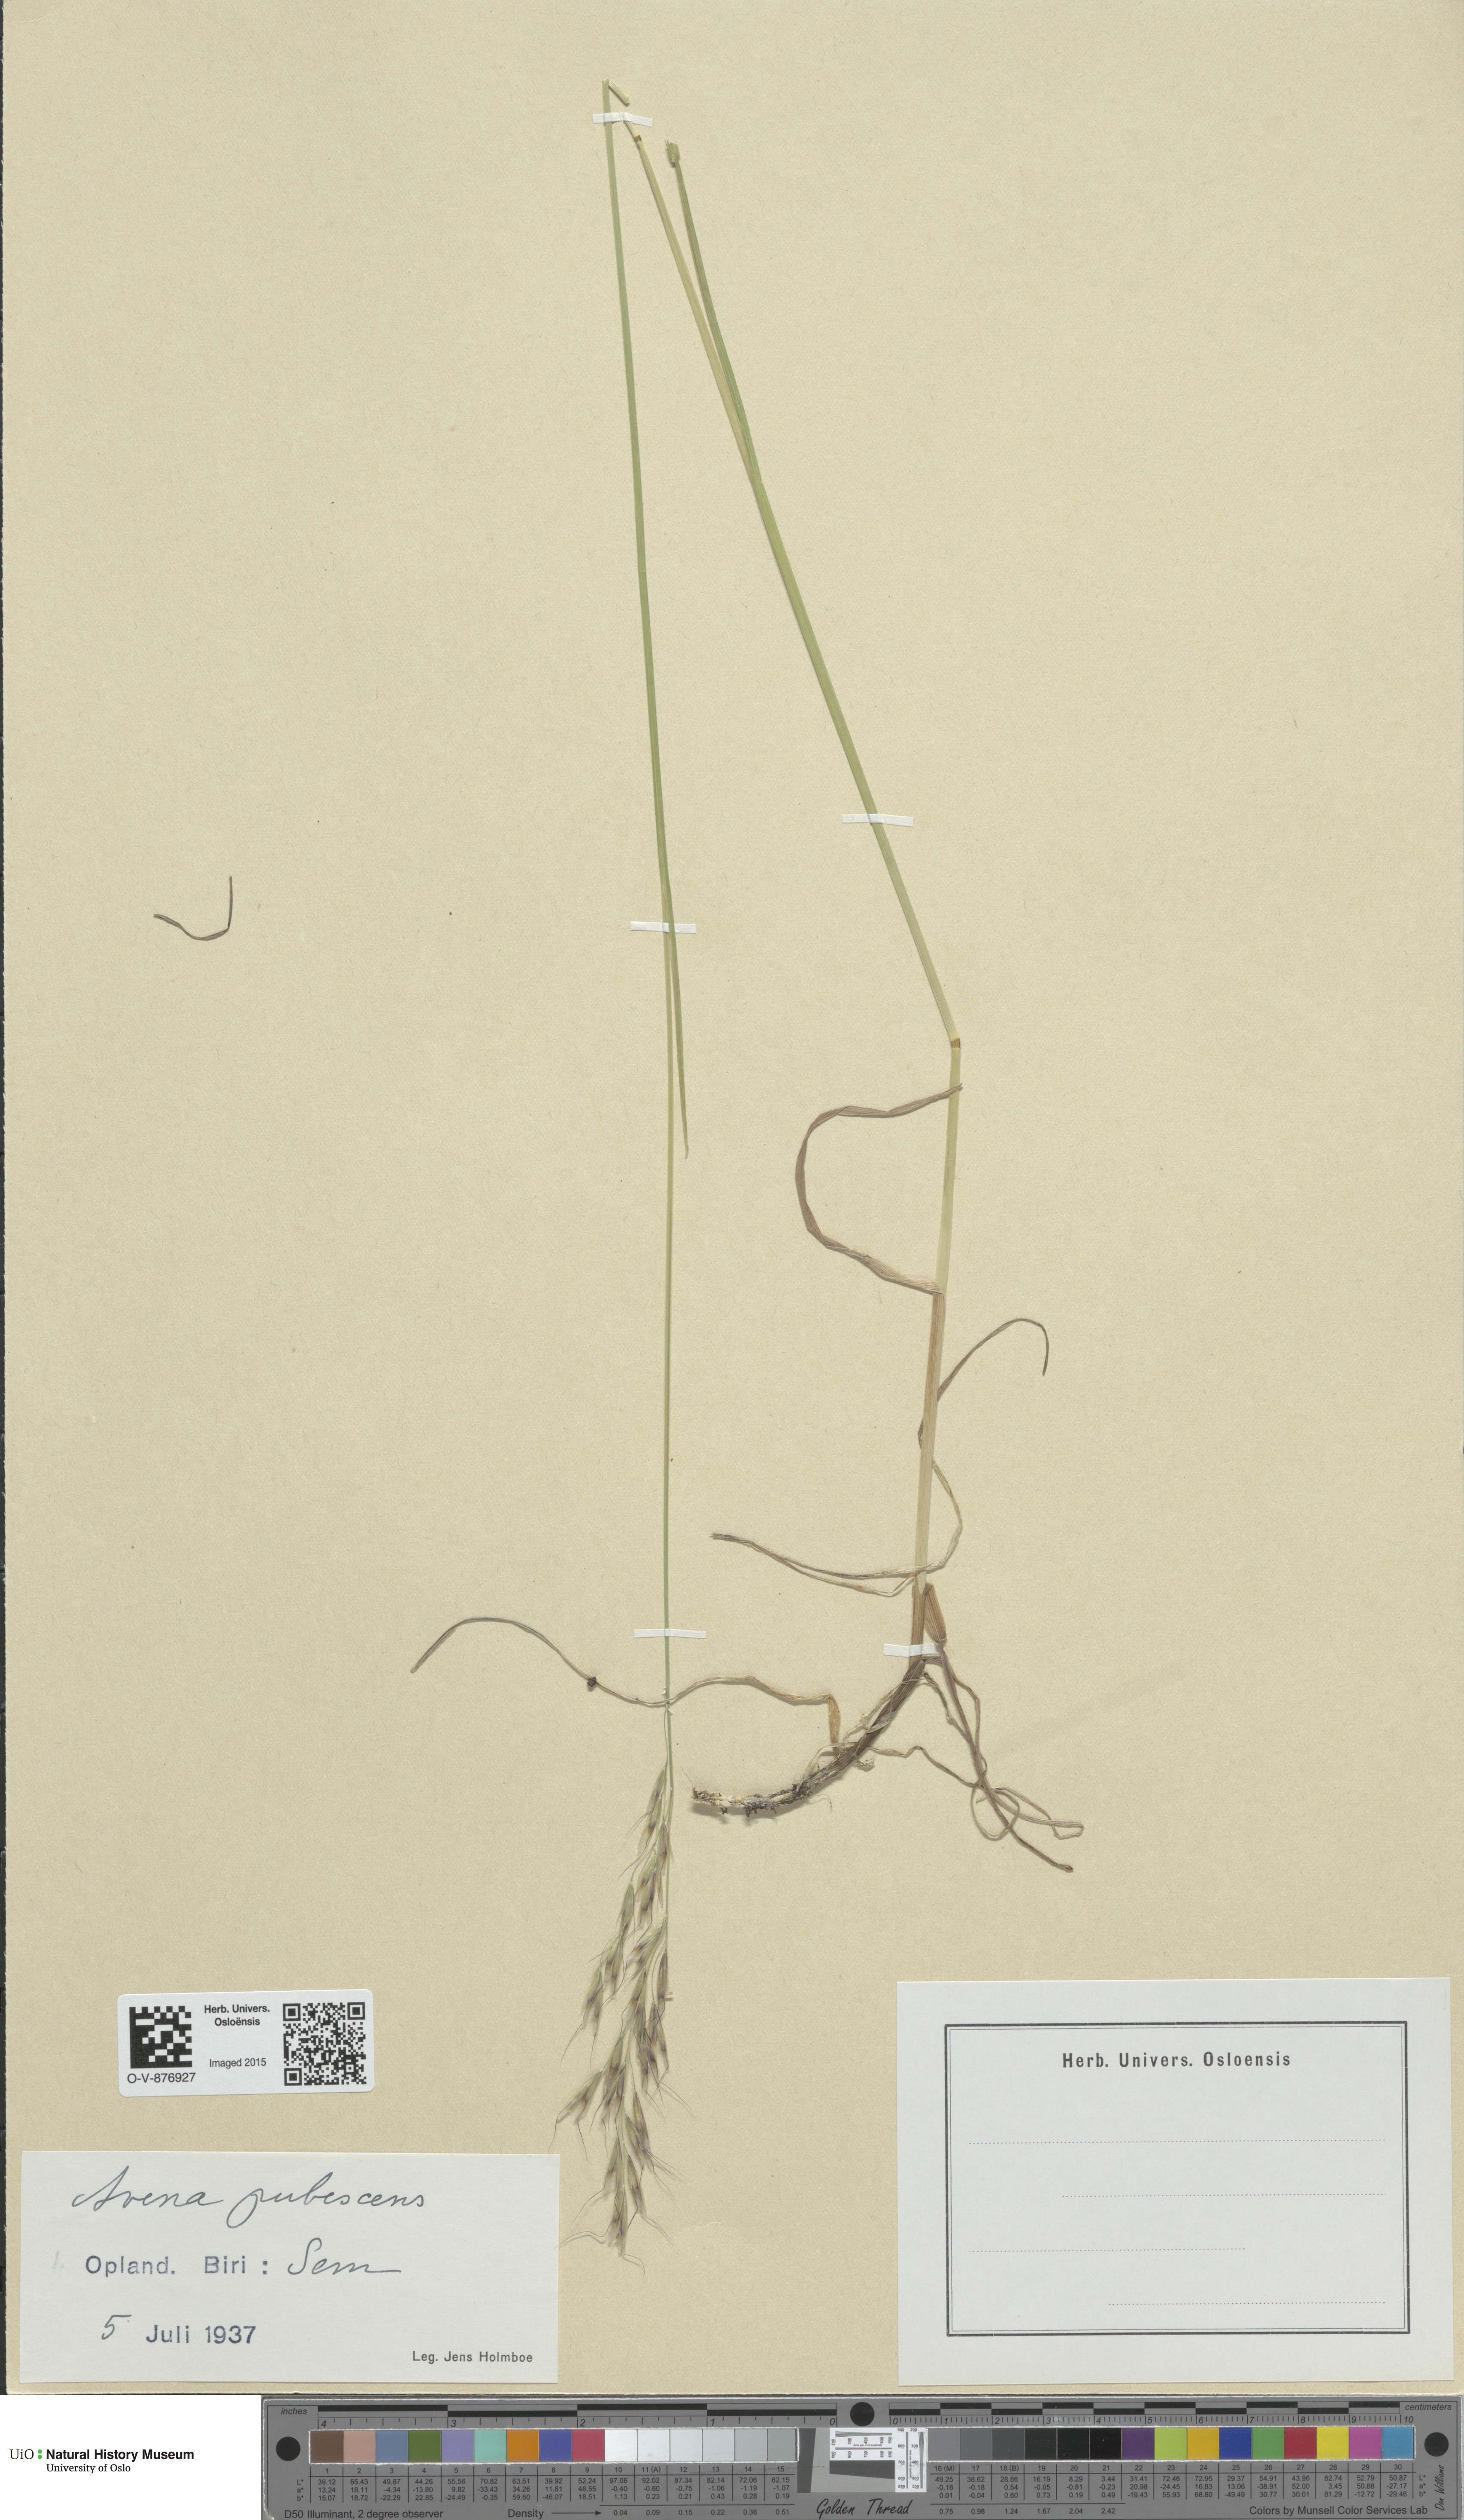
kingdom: Plantae
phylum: Tracheophyta
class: Liliopsida
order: Poales
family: Poaceae
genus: Avenula
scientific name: Avenula pubescens
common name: Downy alpine oatgrass
